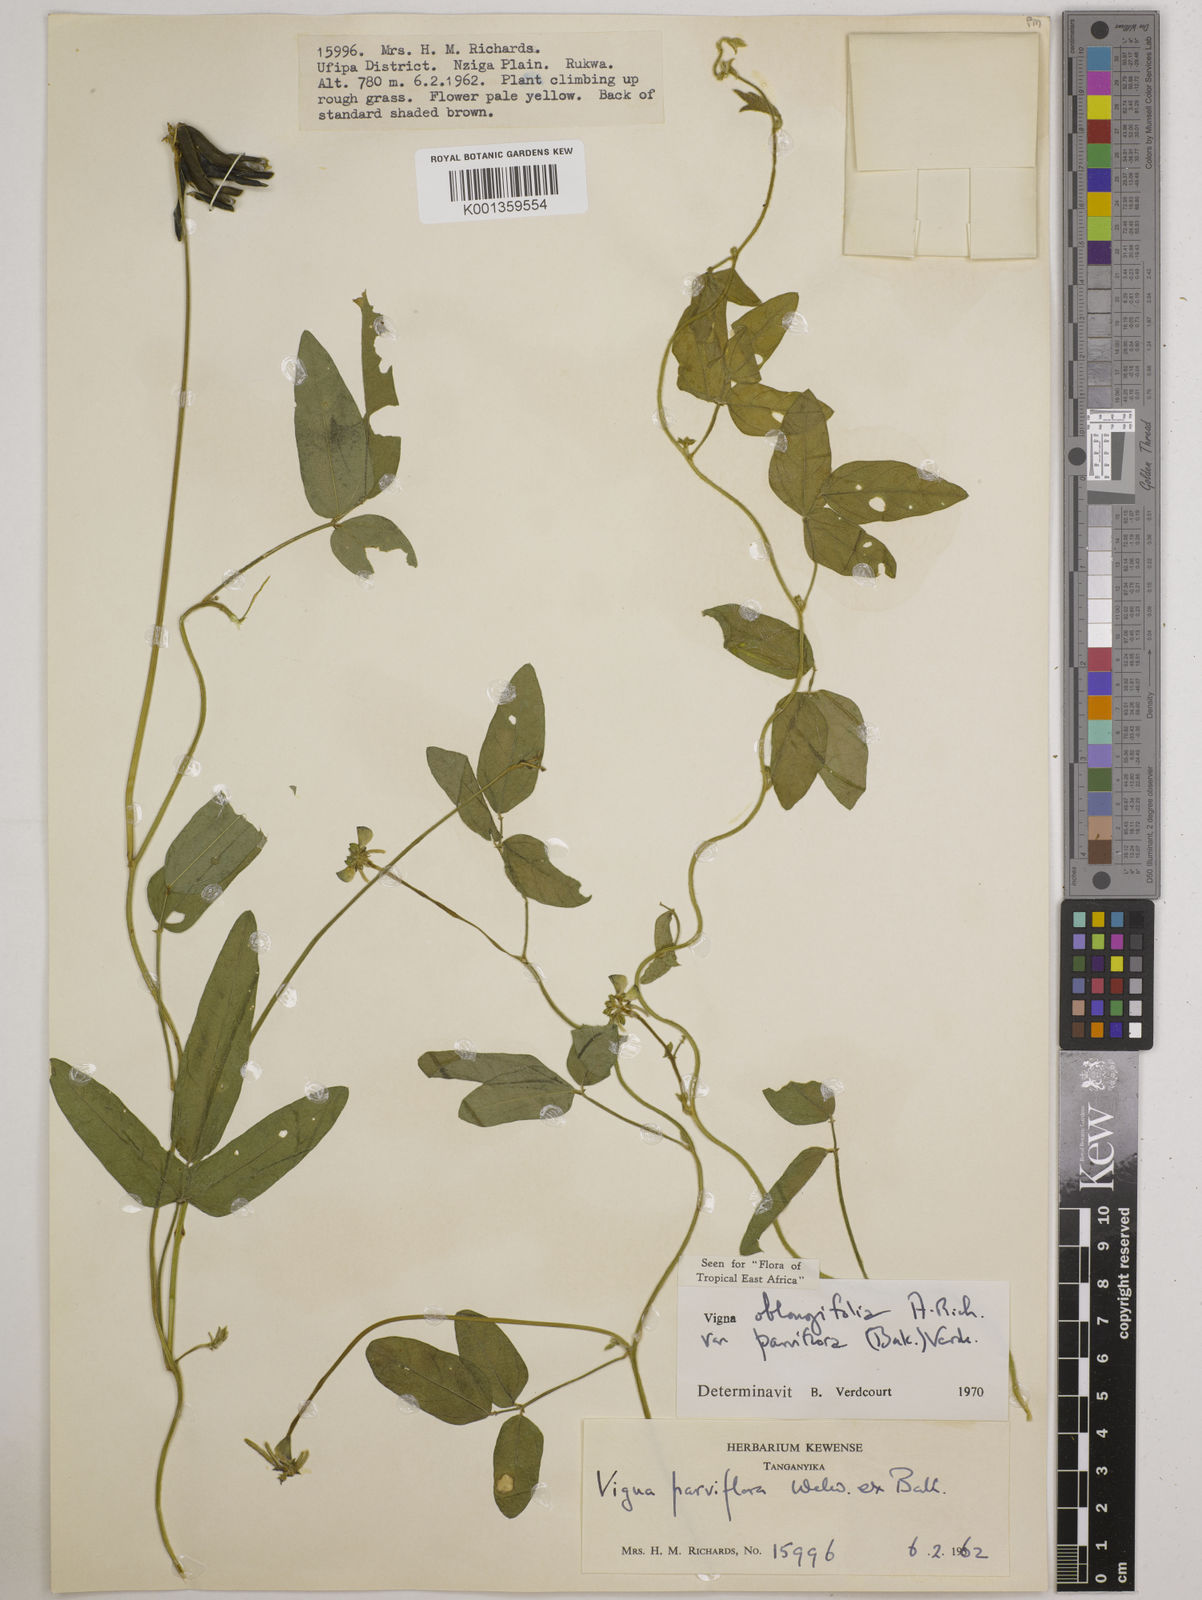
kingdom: Plantae
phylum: Tracheophyta
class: Magnoliopsida
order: Fabales
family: Fabaceae
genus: Vigna
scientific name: Vigna
